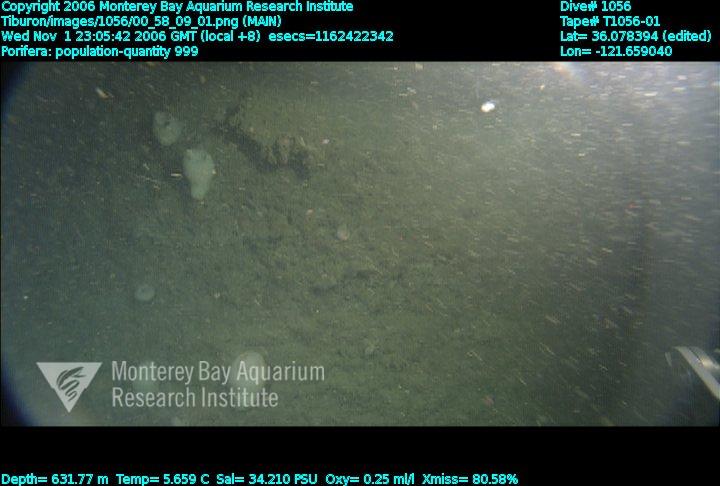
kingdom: Animalia
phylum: Porifera
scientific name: Porifera
